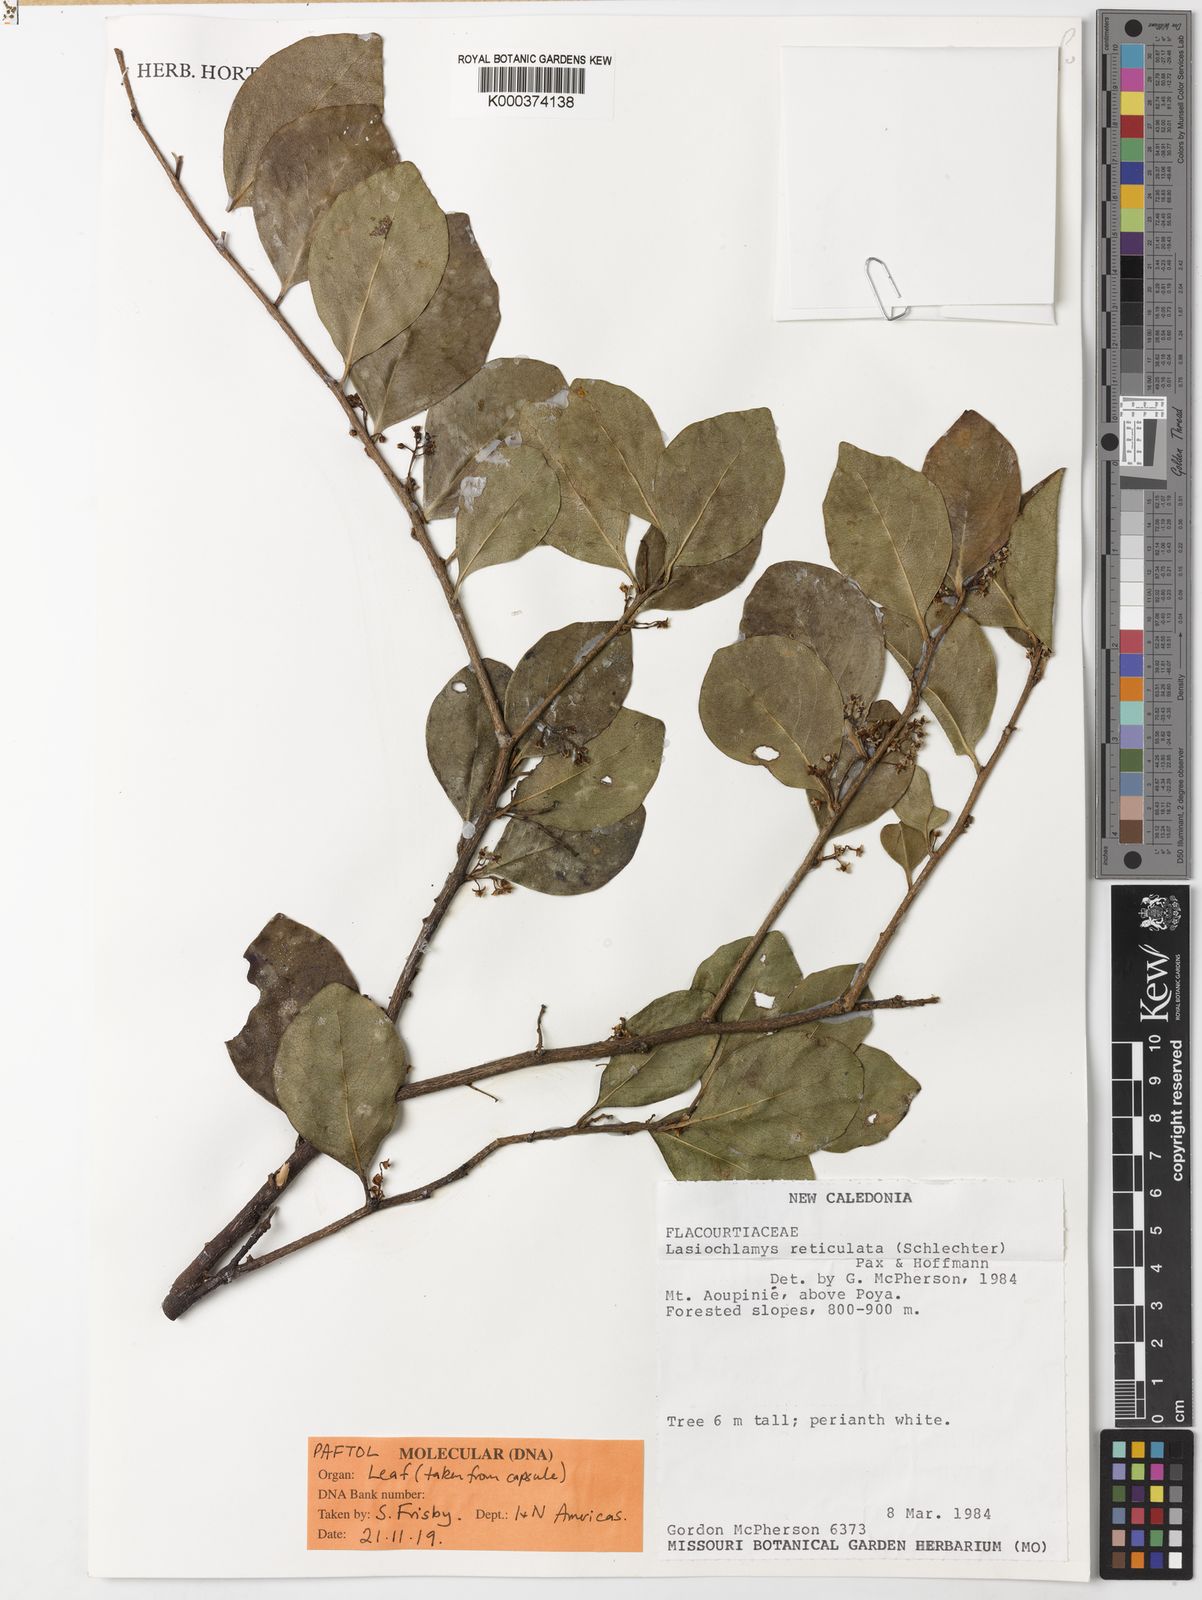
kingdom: Plantae
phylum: Tracheophyta
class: Magnoliopsida
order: Malpighiales
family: Salicaceae
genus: Lasiochlamys
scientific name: Lasiochlamys reticulata
